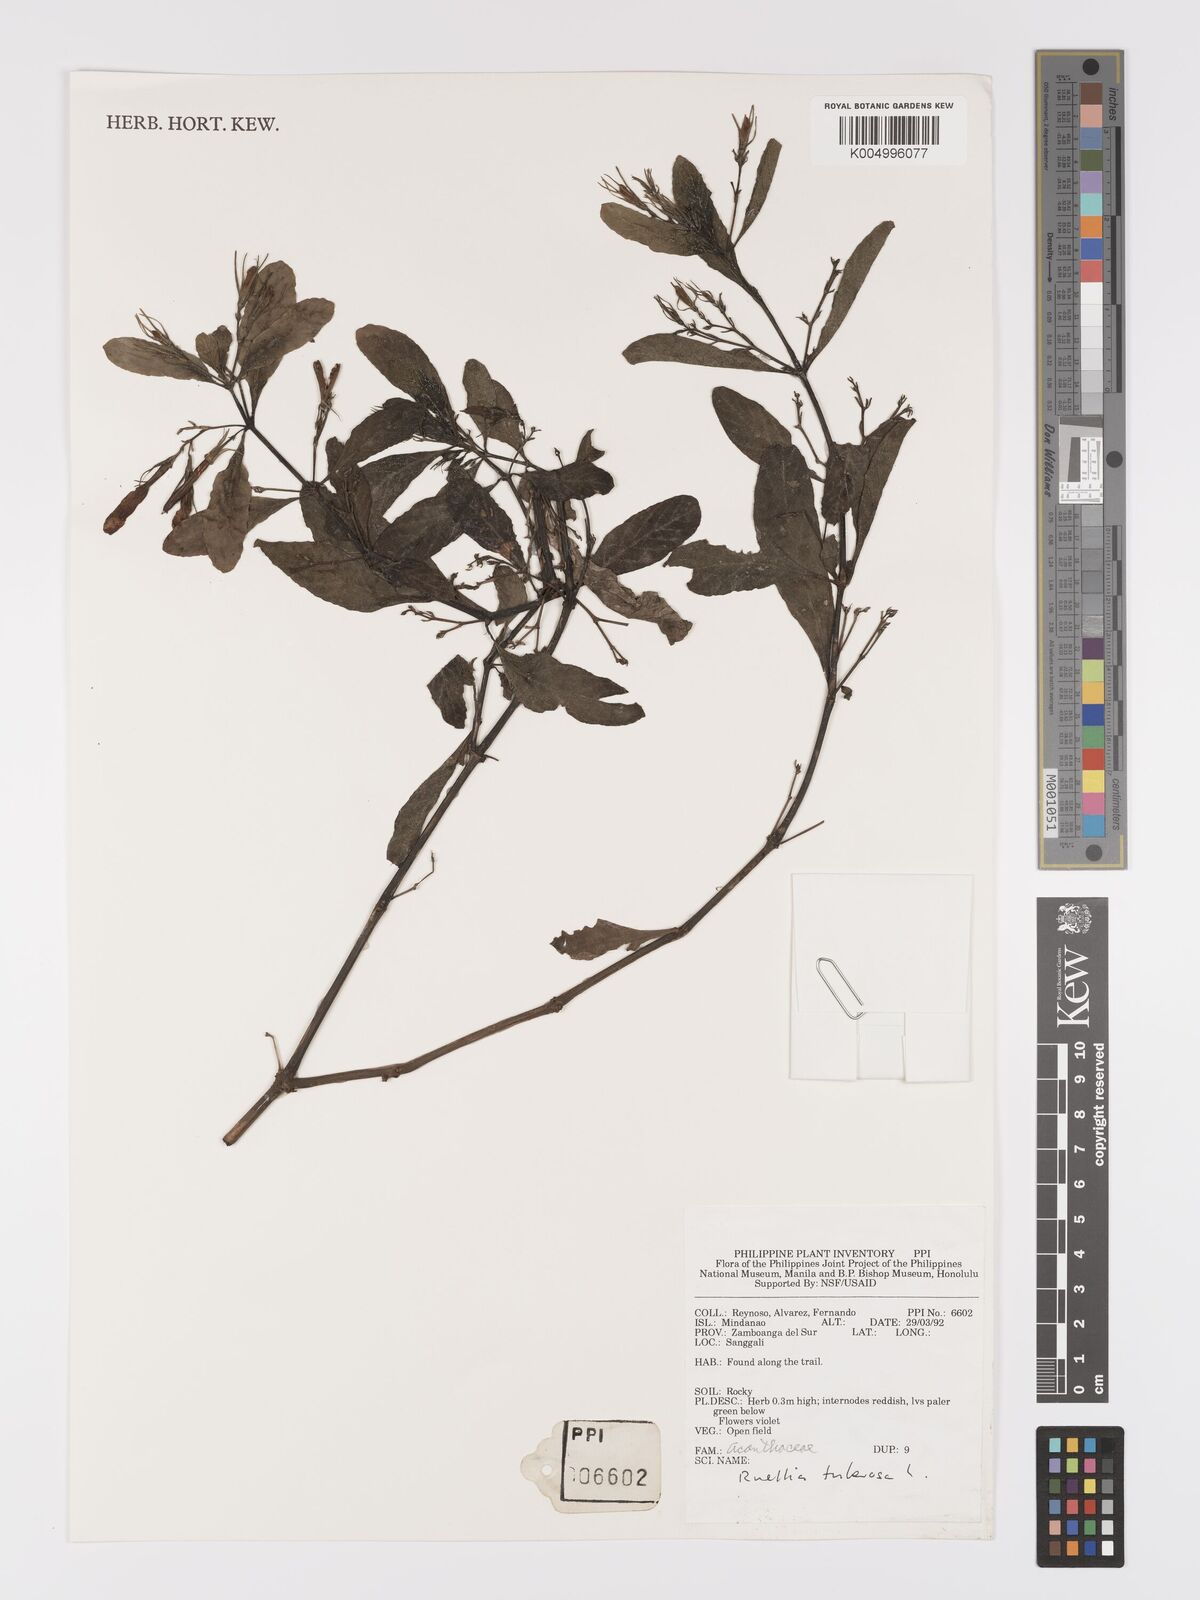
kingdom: Plantae
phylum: Tracheophyta
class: Magnoliopsida
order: Lamiales
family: Acanthaceae
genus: Ruellia
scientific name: Ruellia tuberosa
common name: Devil's bit
